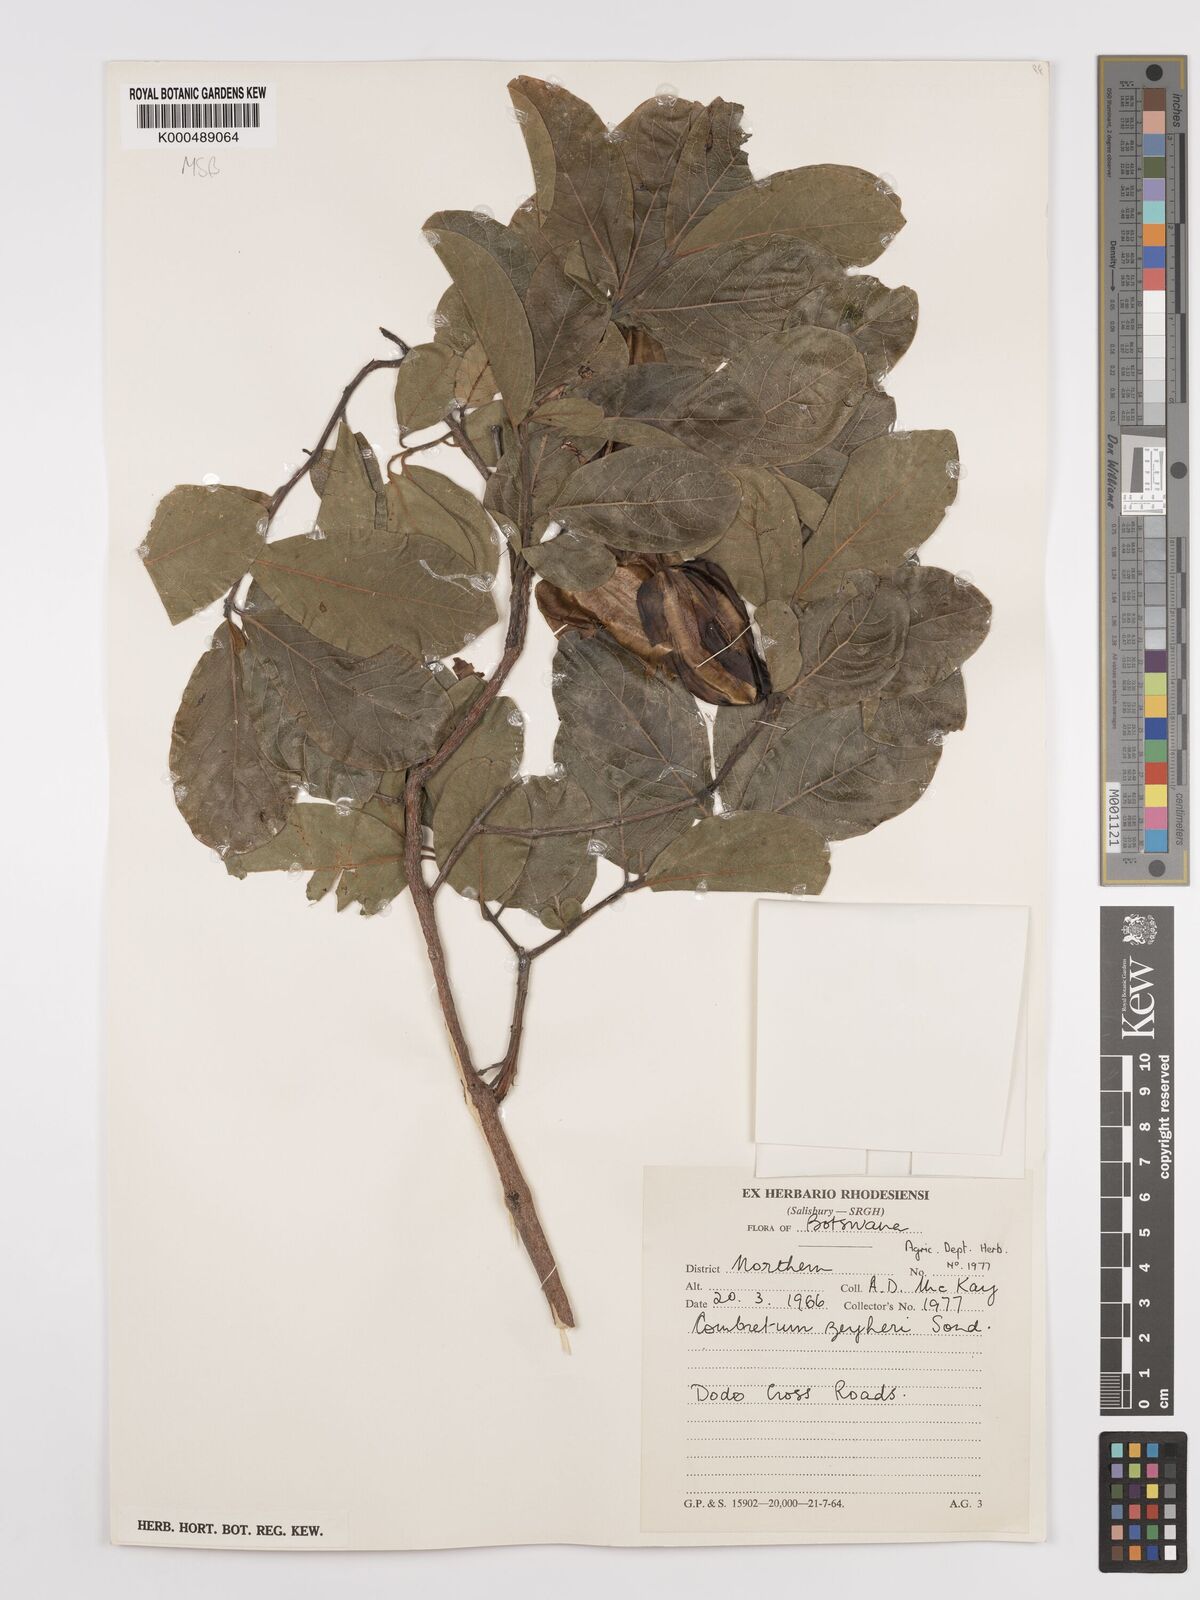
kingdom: Plantae
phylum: Tracheophyta
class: Magnoliopsida
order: Myrtales
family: Combretaceae
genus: Combretum
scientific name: Combretum zeyheri
